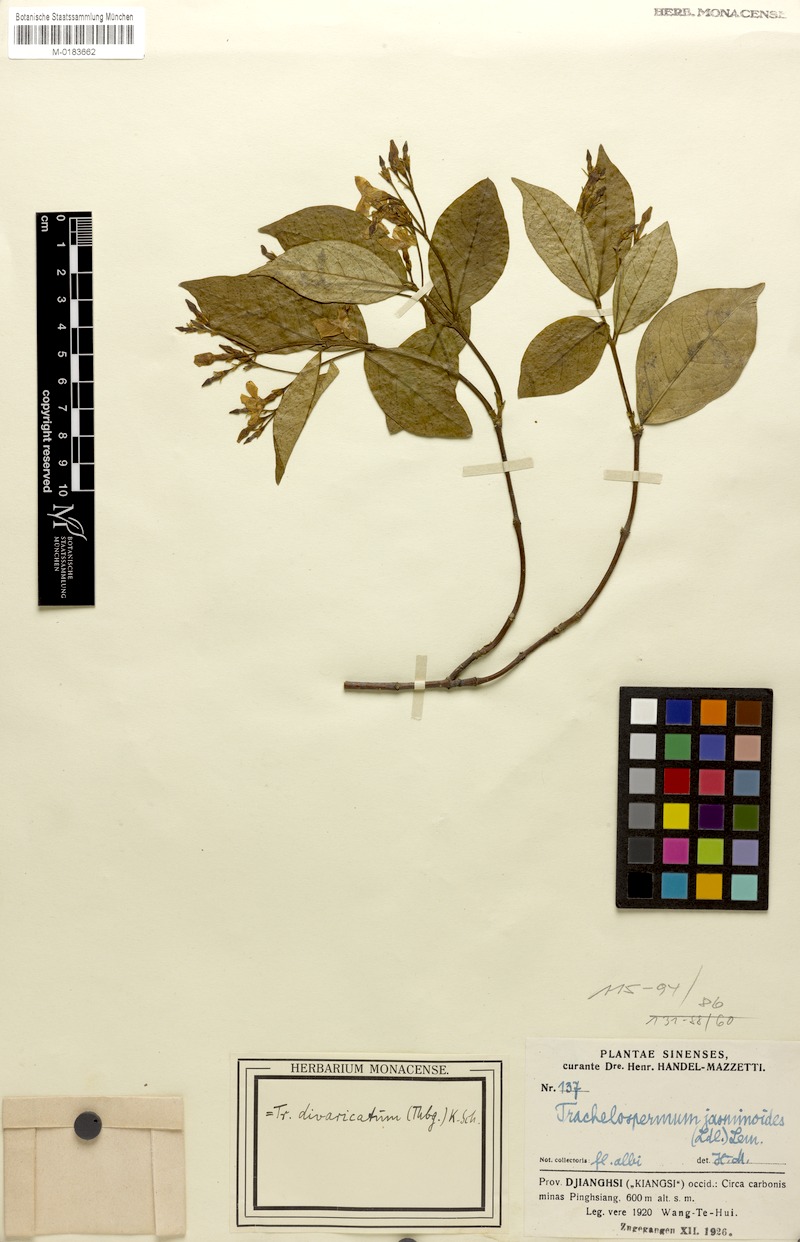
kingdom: Plantae
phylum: Tracheophyta
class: Magnoliopsida
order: Gentianales
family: Apocynaceae
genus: Trachelospermum
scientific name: Trachelospermum jasminoides
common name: Confederate jasmine
